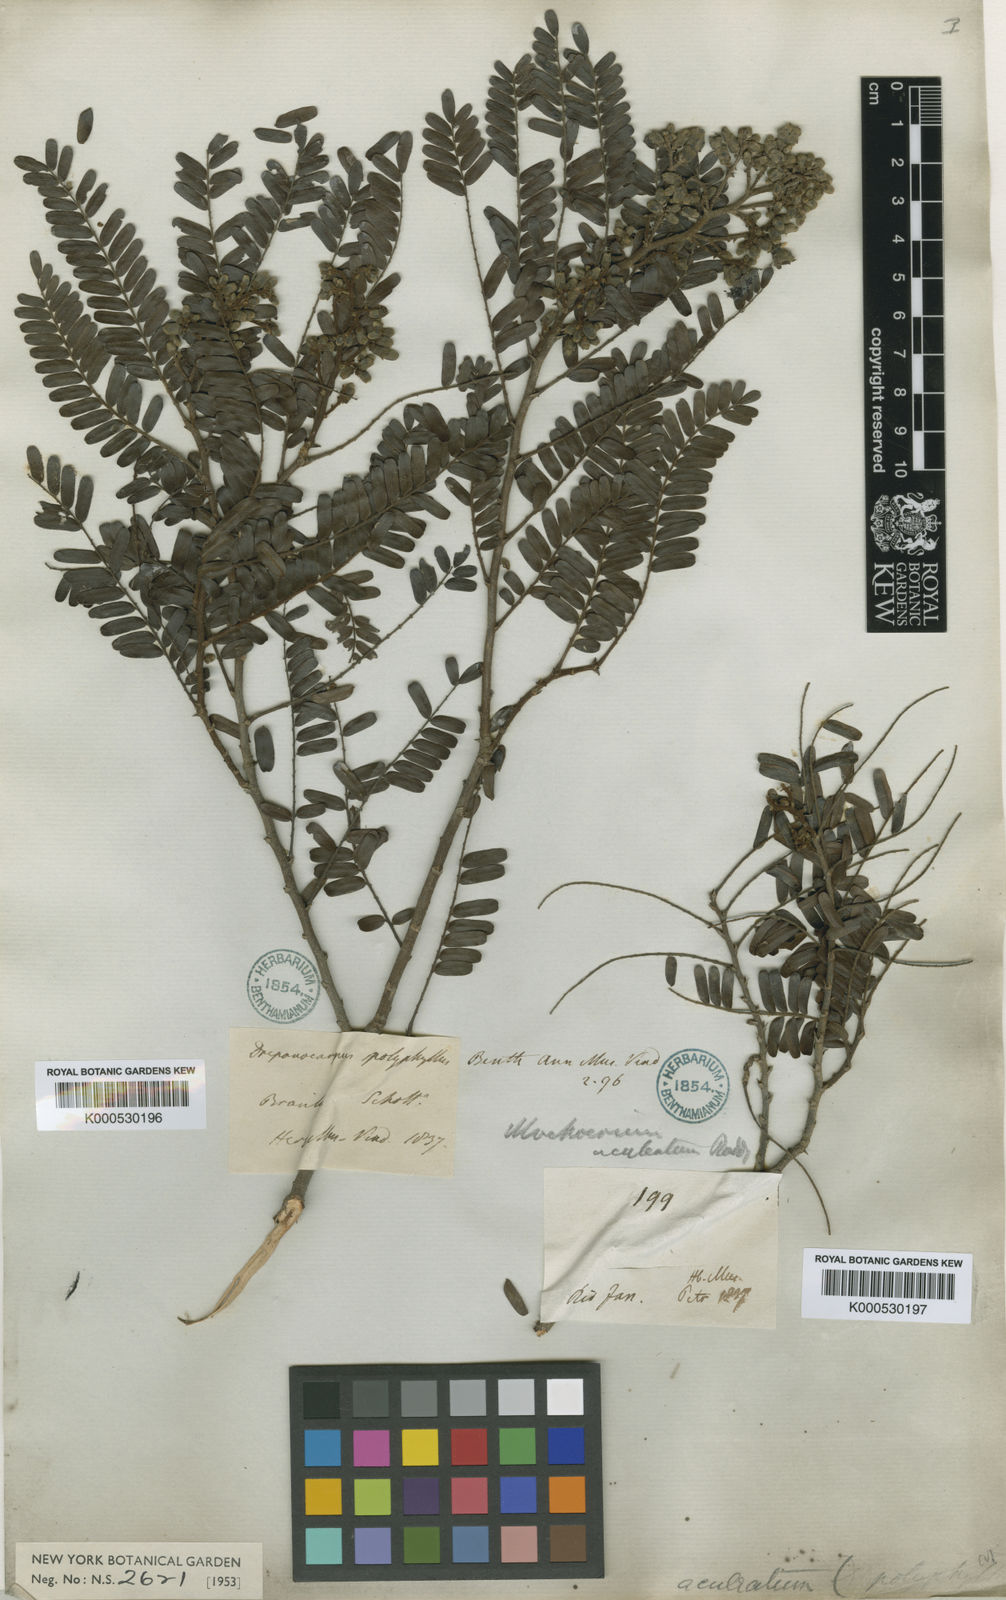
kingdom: Plantae
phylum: Tracheophyta
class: Magnoliopsida
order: Fabales
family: Fabaceae
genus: Machaerium
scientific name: Machaerium aculeatum
